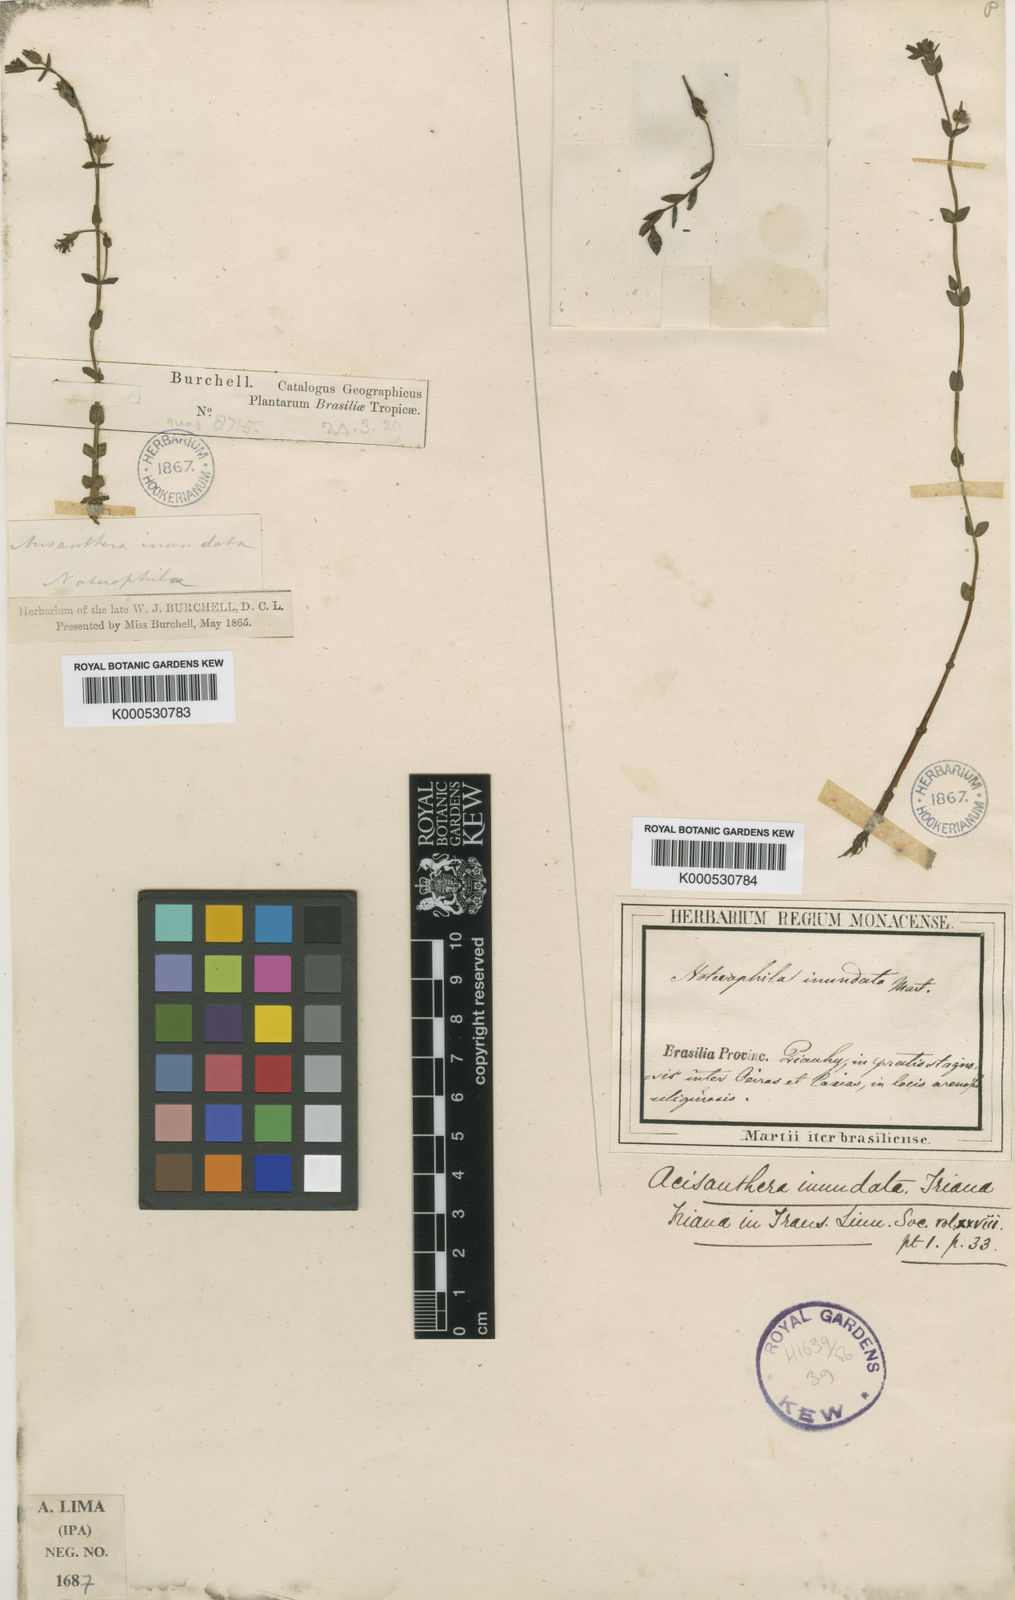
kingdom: Plantae
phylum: Tracheophyta
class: Magnoliopsida
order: Myrtales
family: Melastomataceae
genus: Noterophila
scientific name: Noterophila inundata
